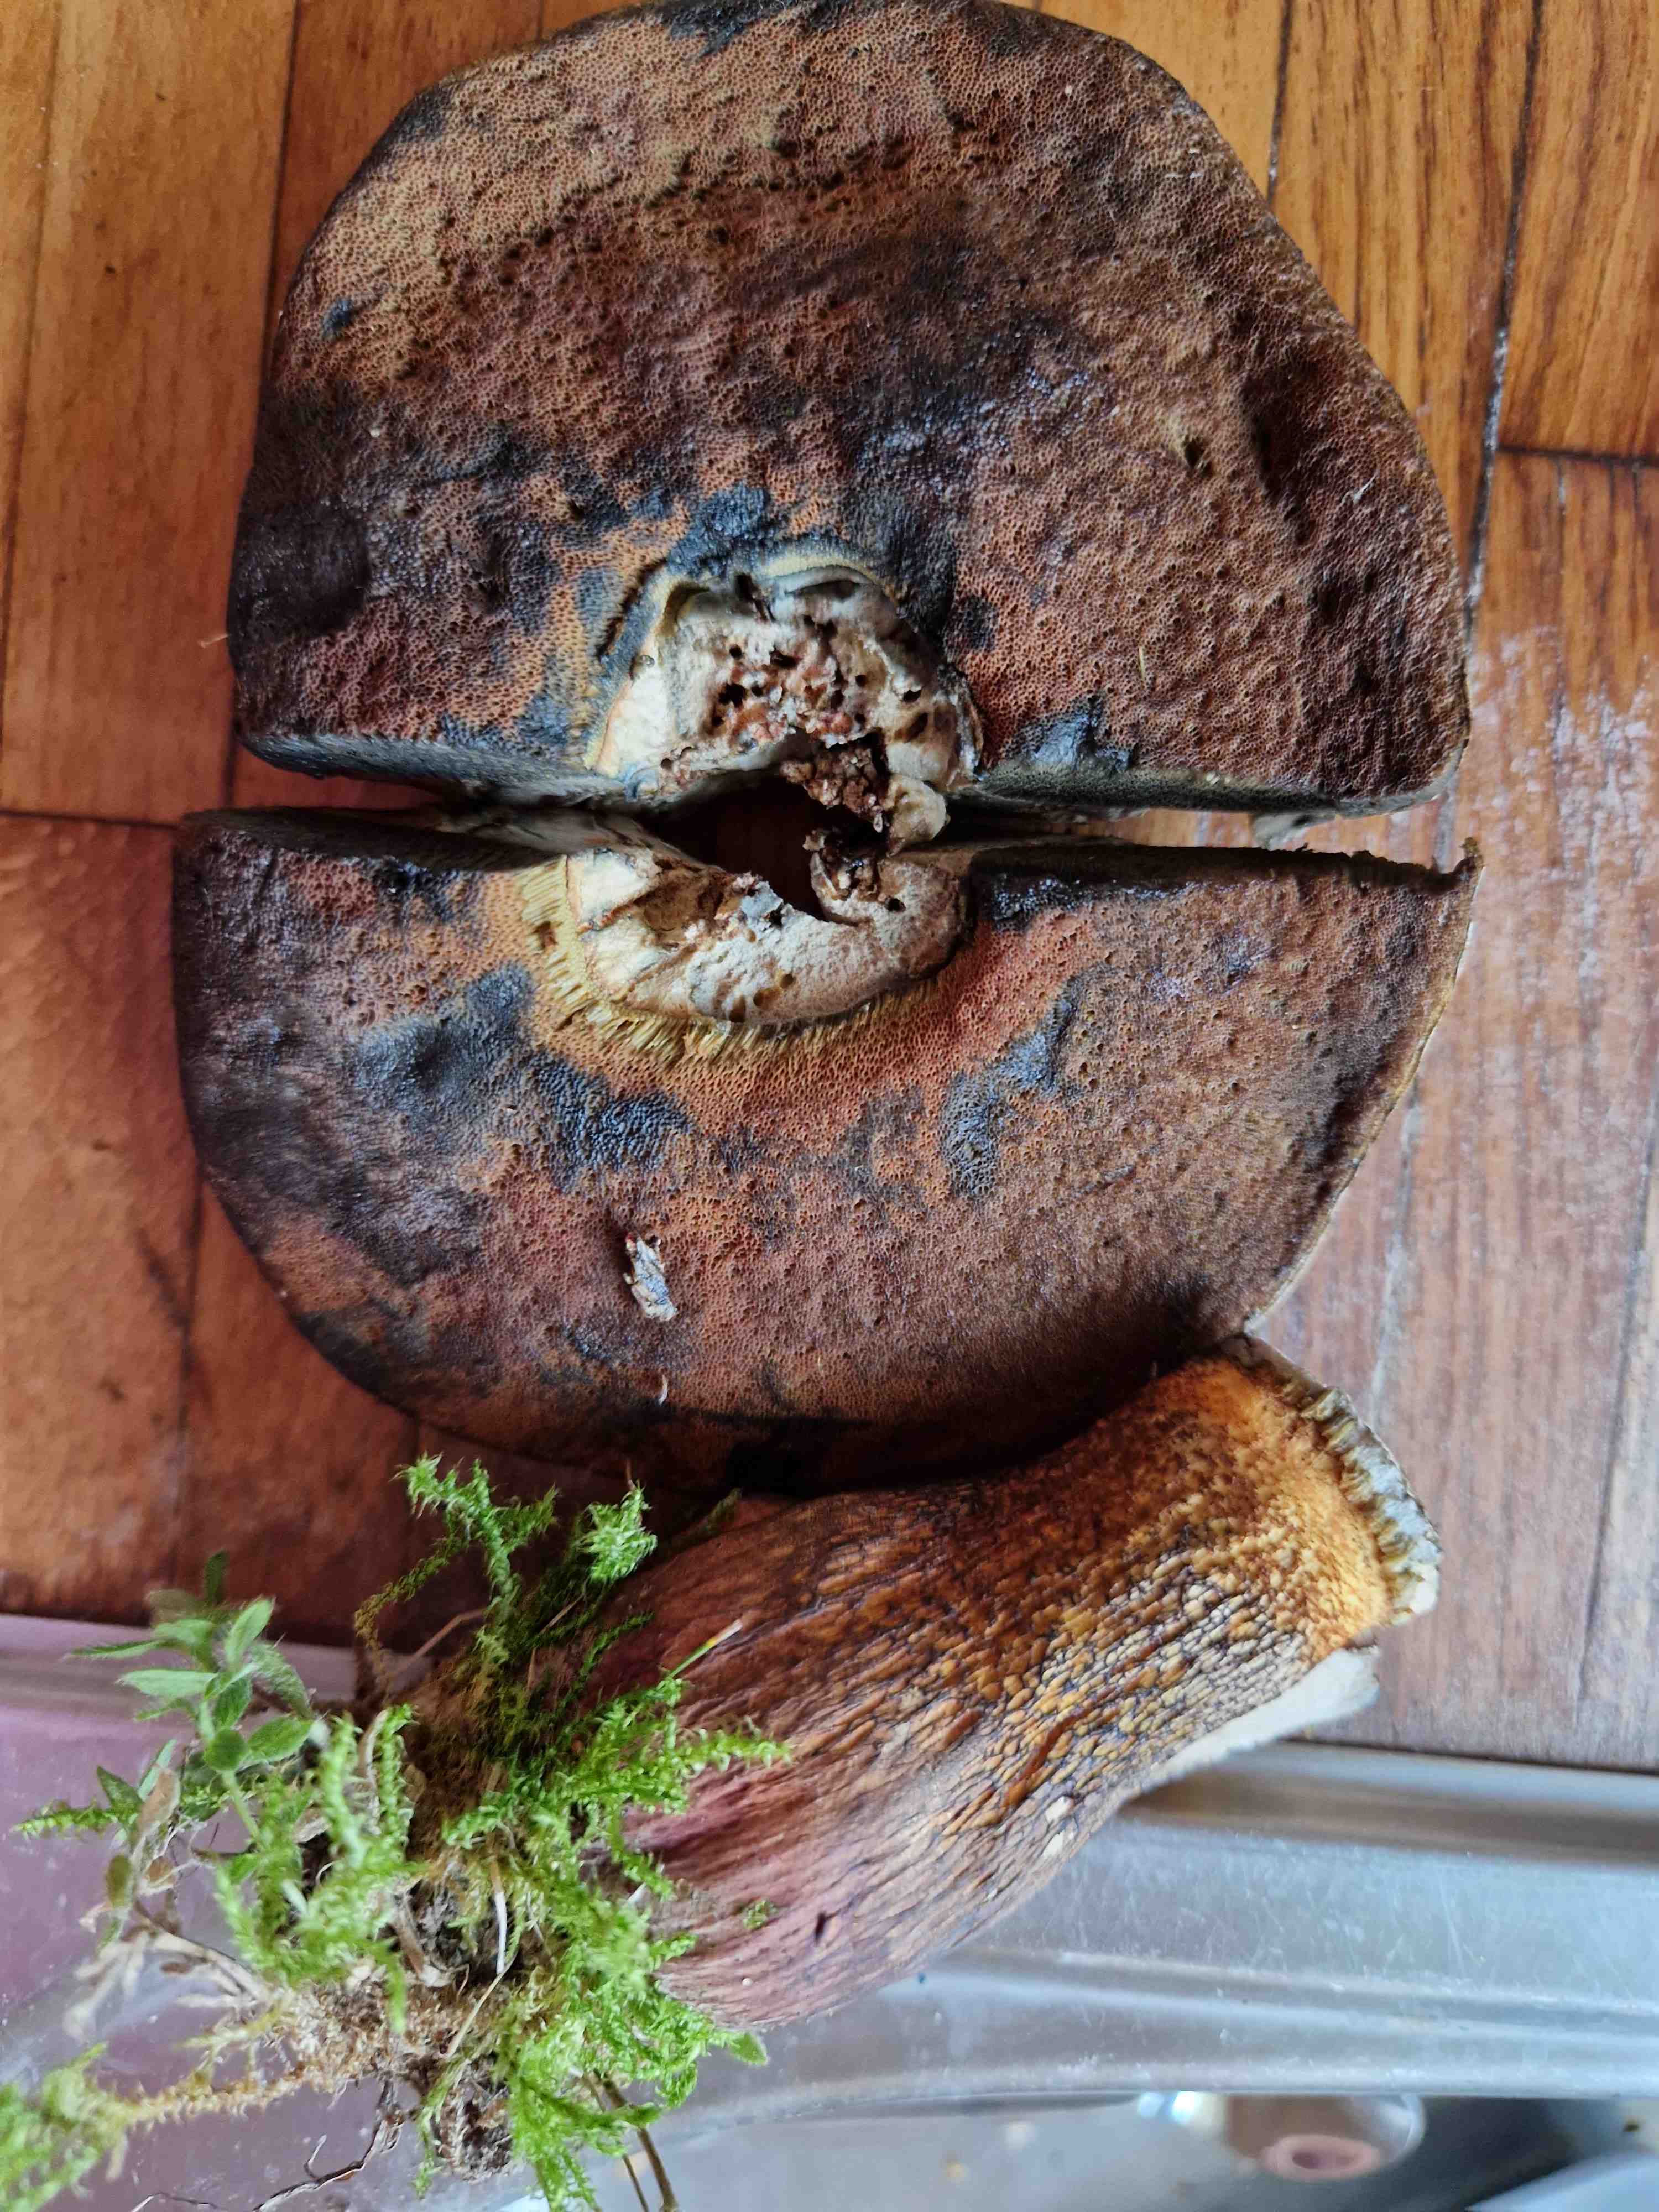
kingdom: Fungi
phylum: Basidiomycota
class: Agaricomycetes
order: Boletales
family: Boletaceae
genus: Caloboletus
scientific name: Caloboletus calopus
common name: skønfodet rørhat
